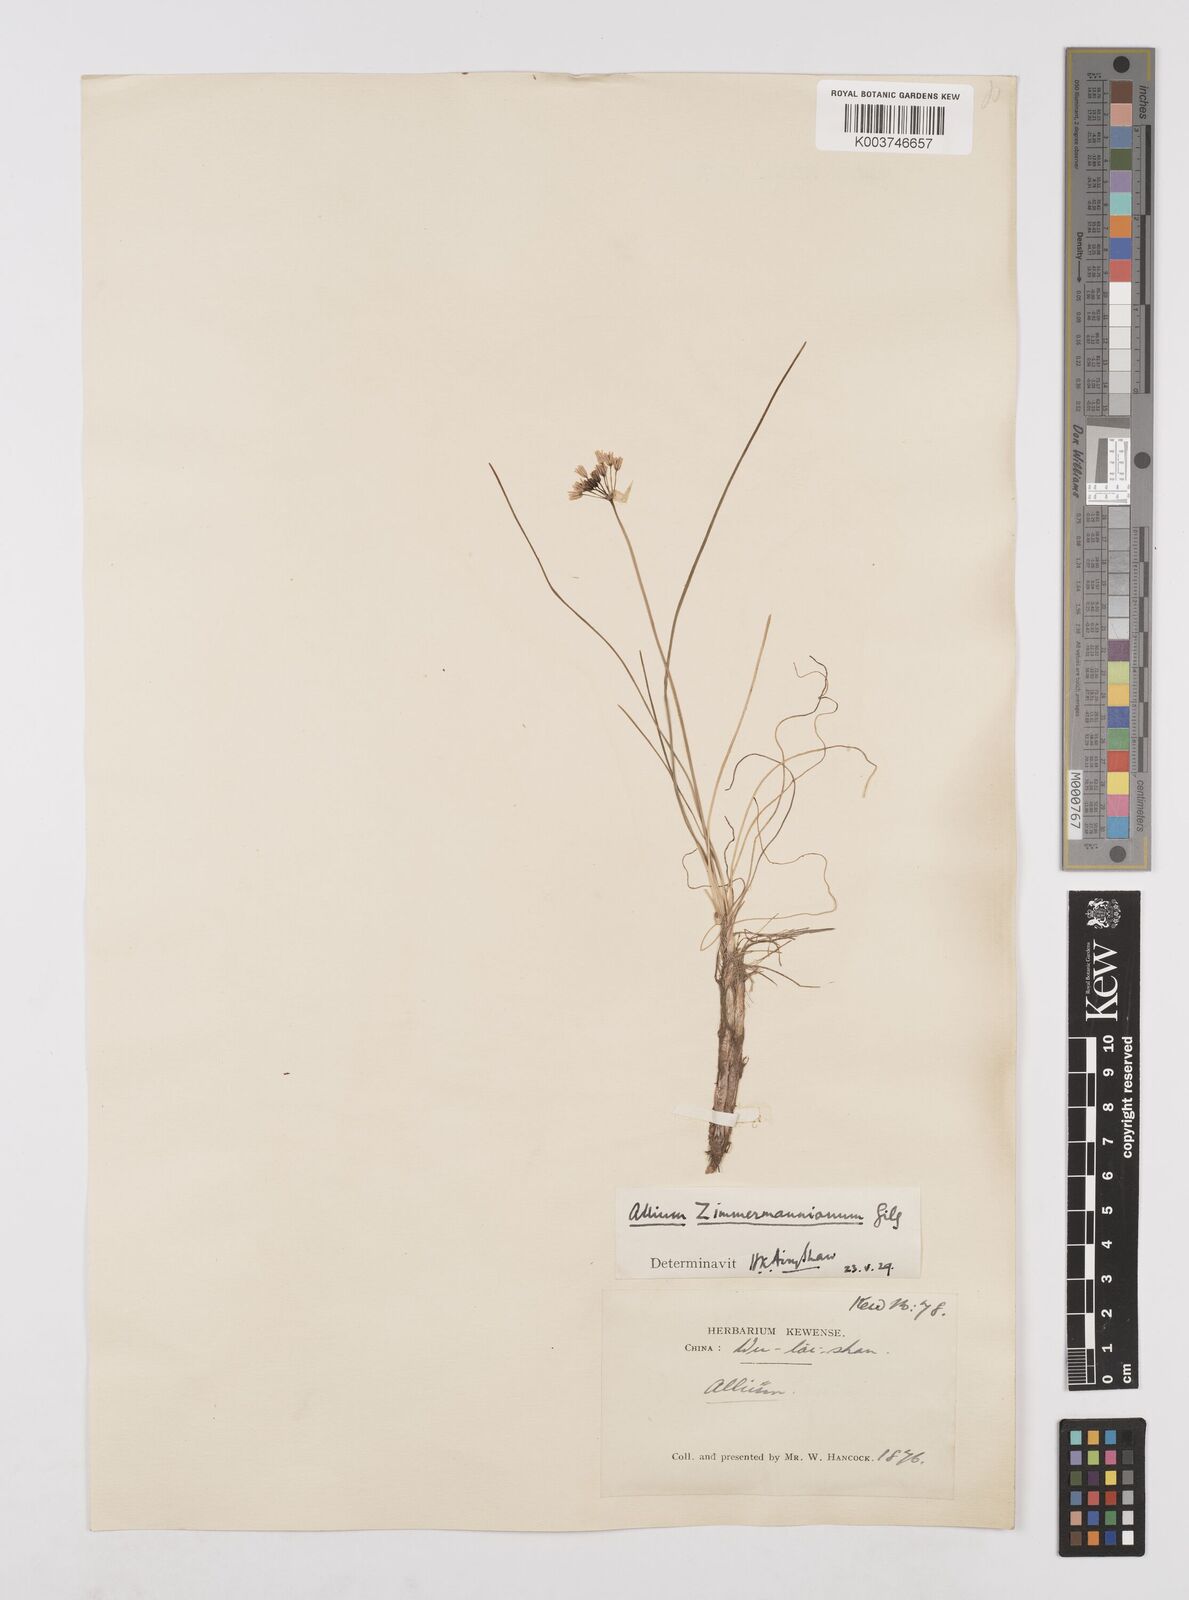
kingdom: Plantae
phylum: Tracheophyta
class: Liliopsida
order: Asparagales
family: Amaryllidaceae
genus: Allium
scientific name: Allium anisopodium
